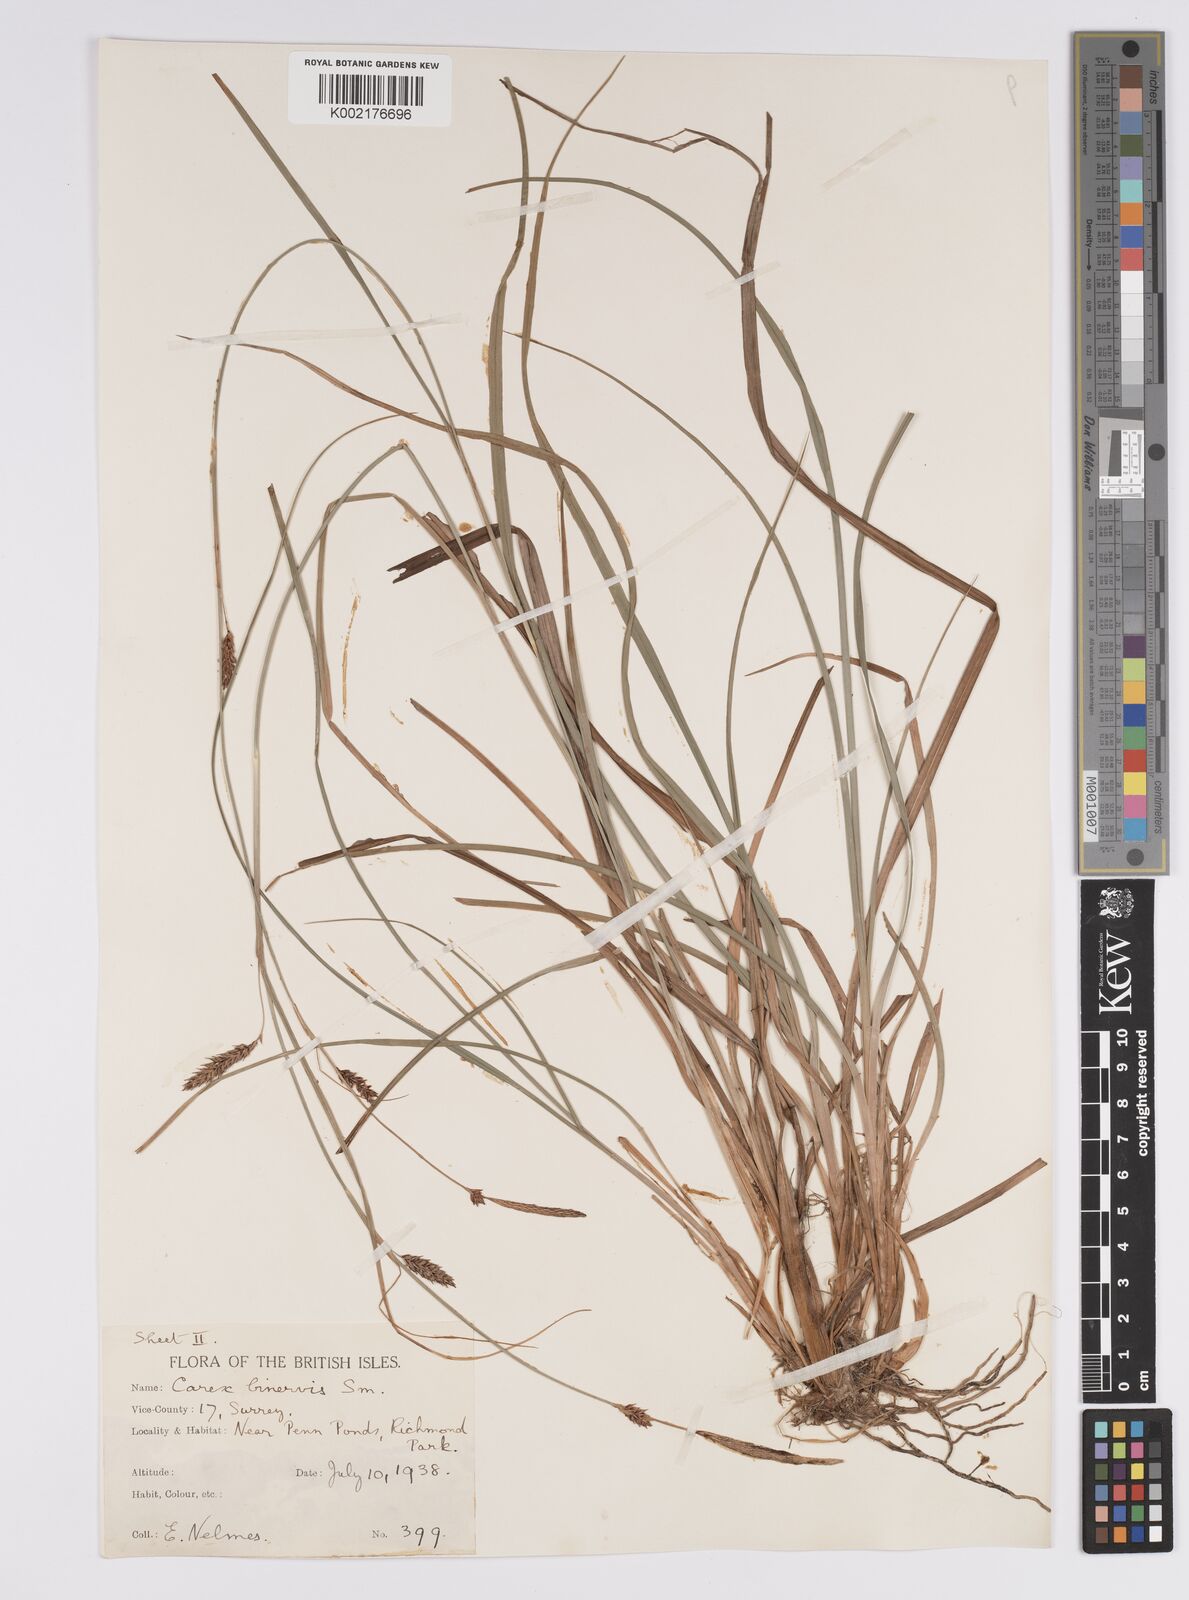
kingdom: Plantae
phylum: Tracheophyta
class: Liliopsida
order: Poales
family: Cyperaceae
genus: Carex
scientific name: Carex binervis
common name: Green-ribbed sedge
